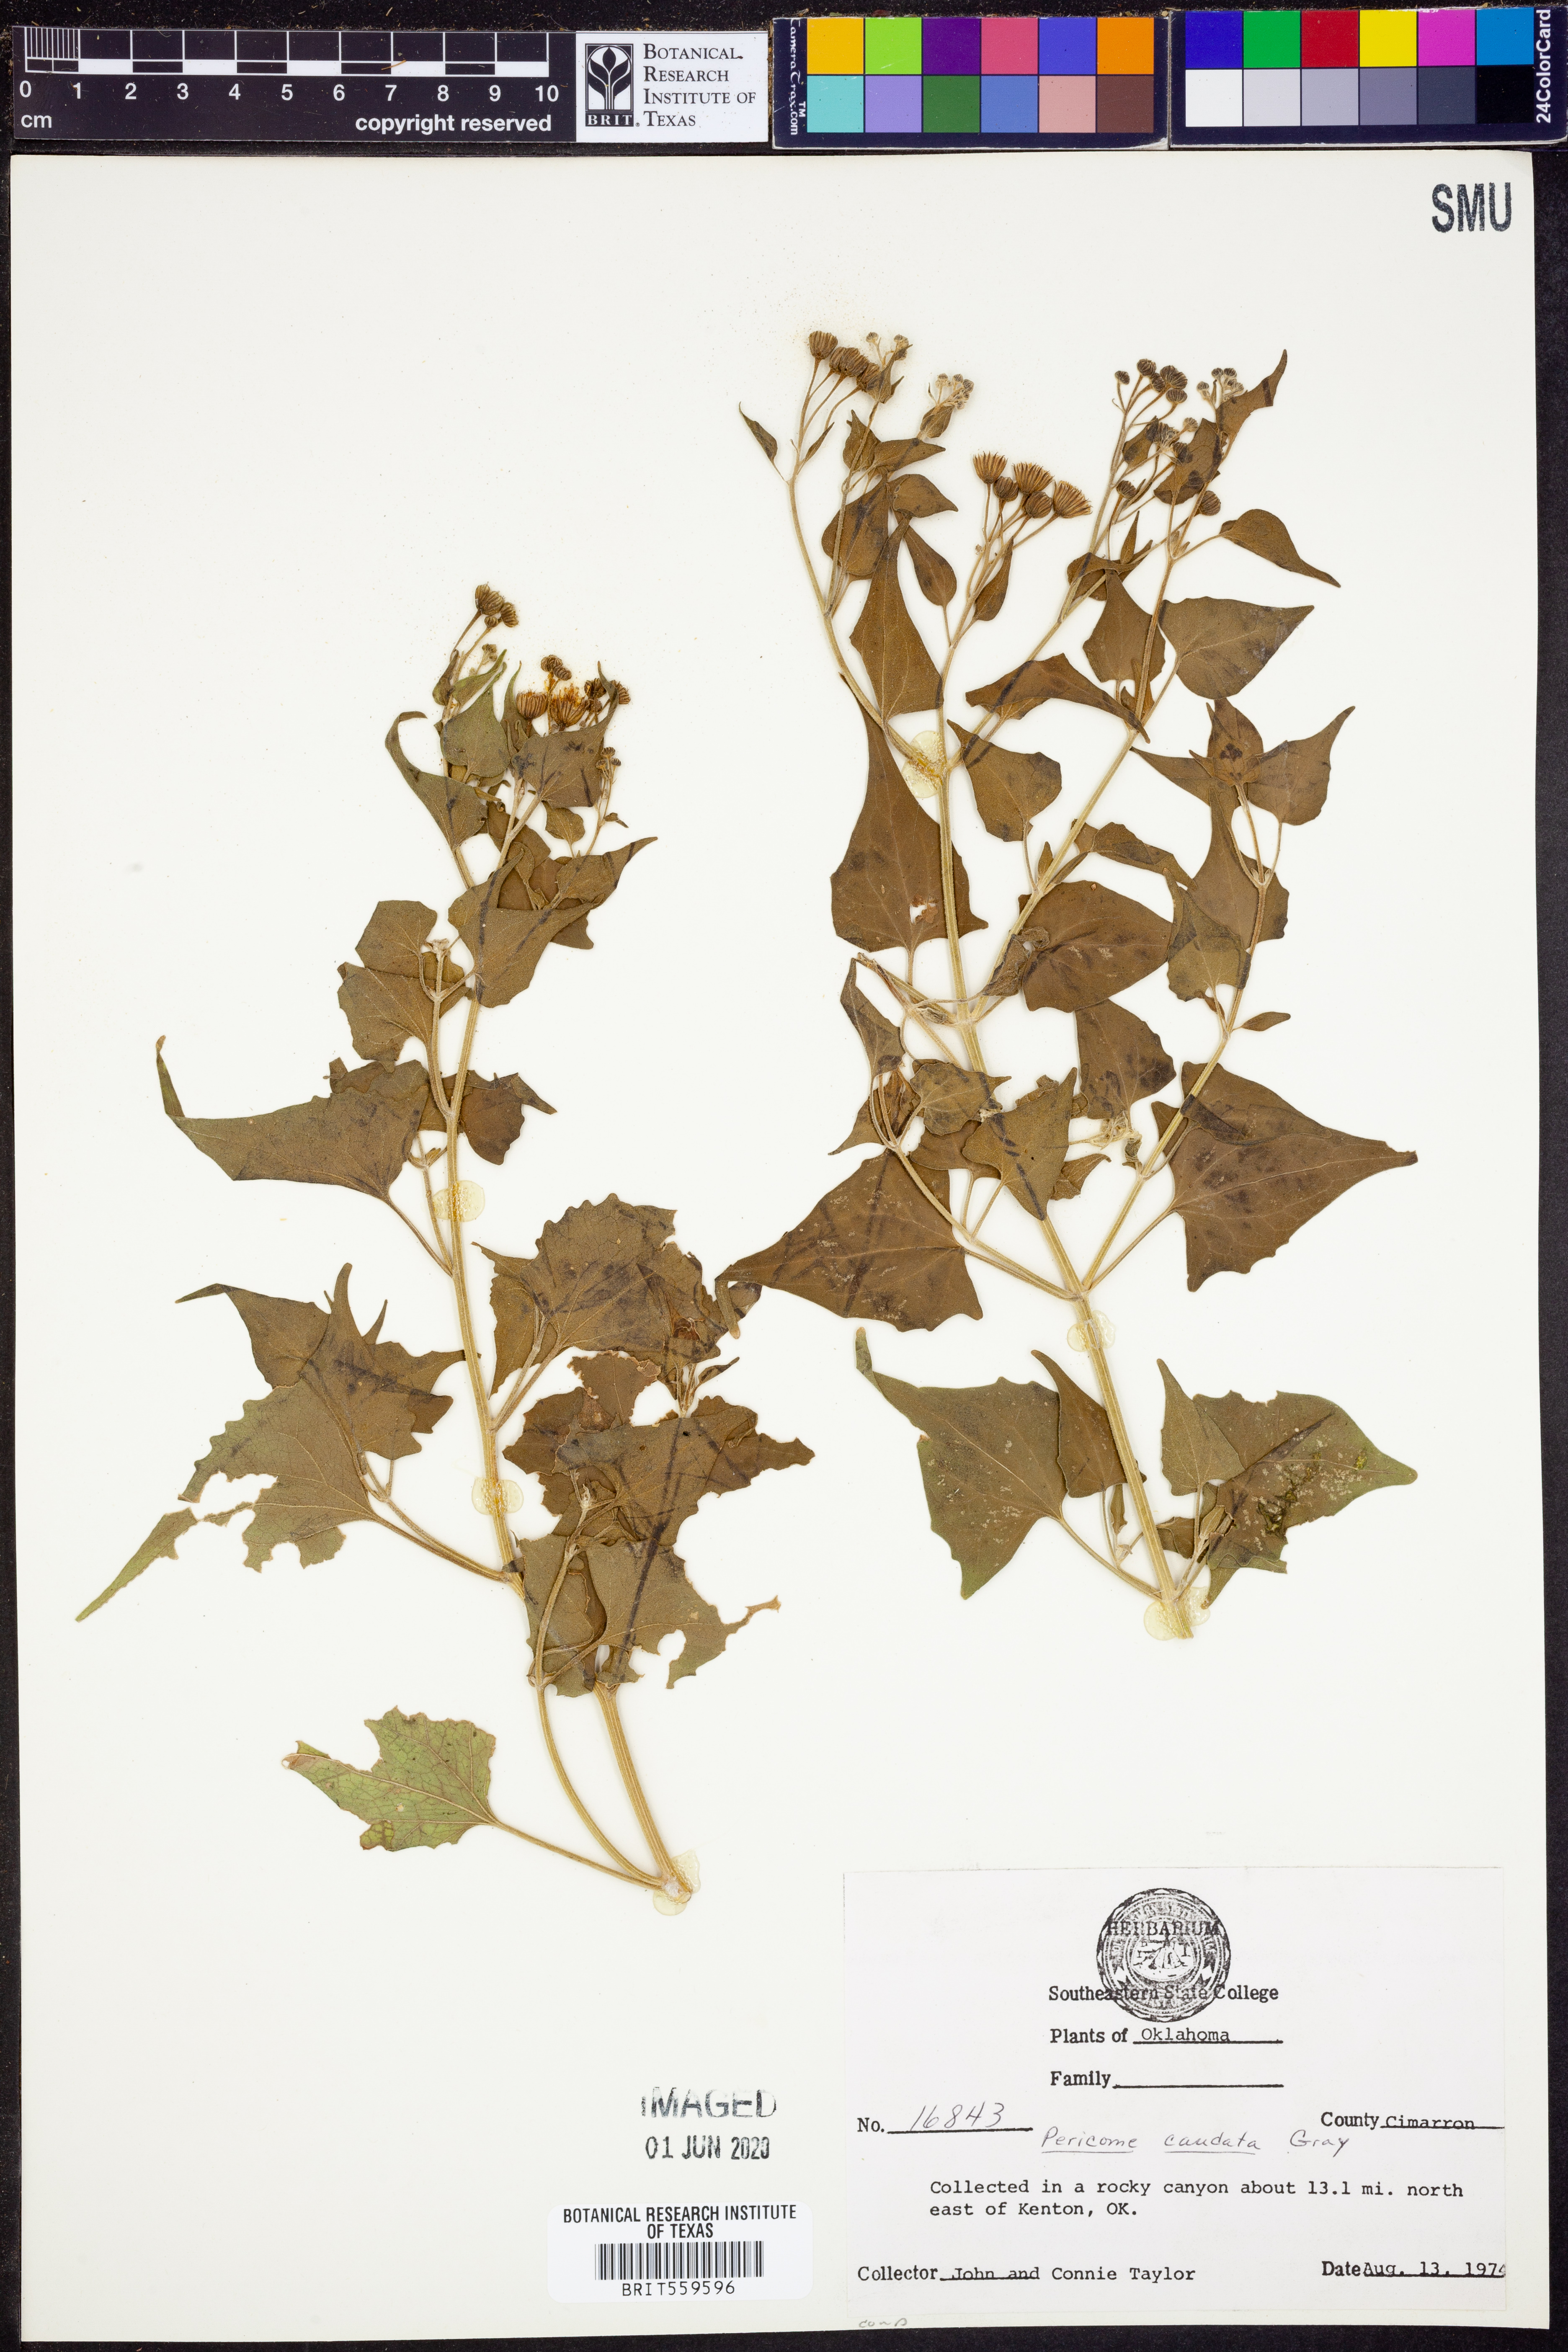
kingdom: Plantae
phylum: Tracheophyta
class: Magnoliopsida
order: Asterales
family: Asteraceae
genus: Pericome
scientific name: Pericome caudata
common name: Taperleaf
